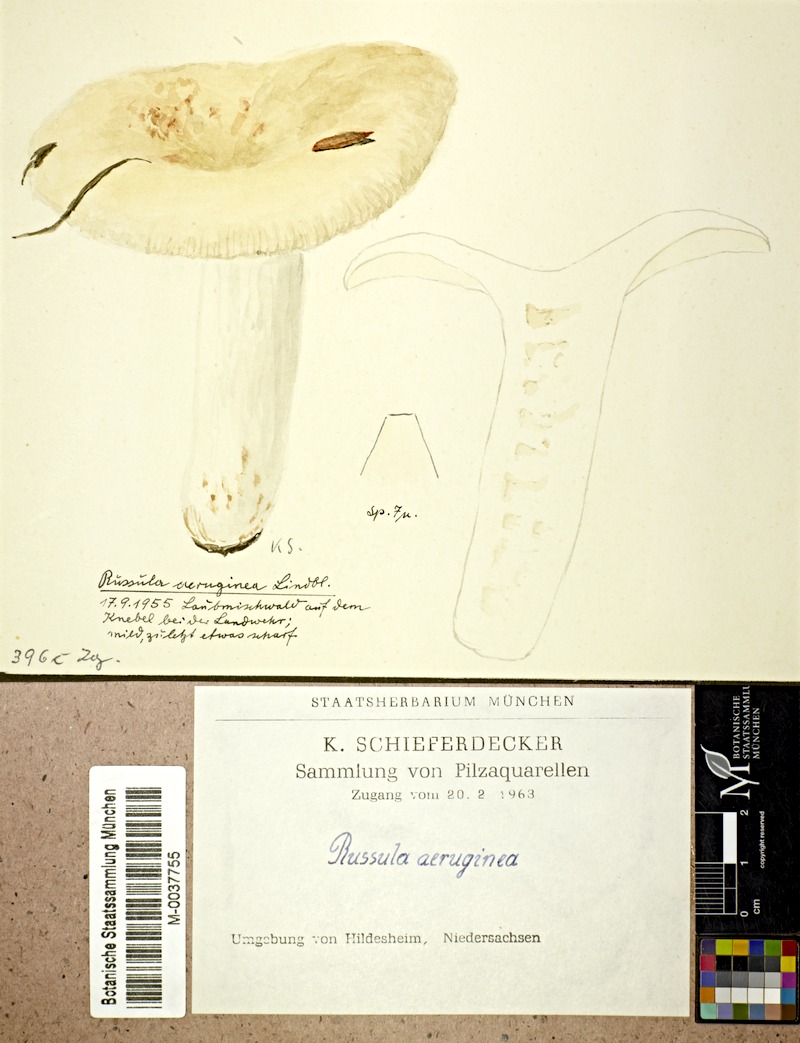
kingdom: Fungi
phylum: Basidiomycota
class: Agaricomycetes
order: Russulales
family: Russulaceae
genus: Russula
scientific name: Russula aeruginea
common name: Green brittlegill
